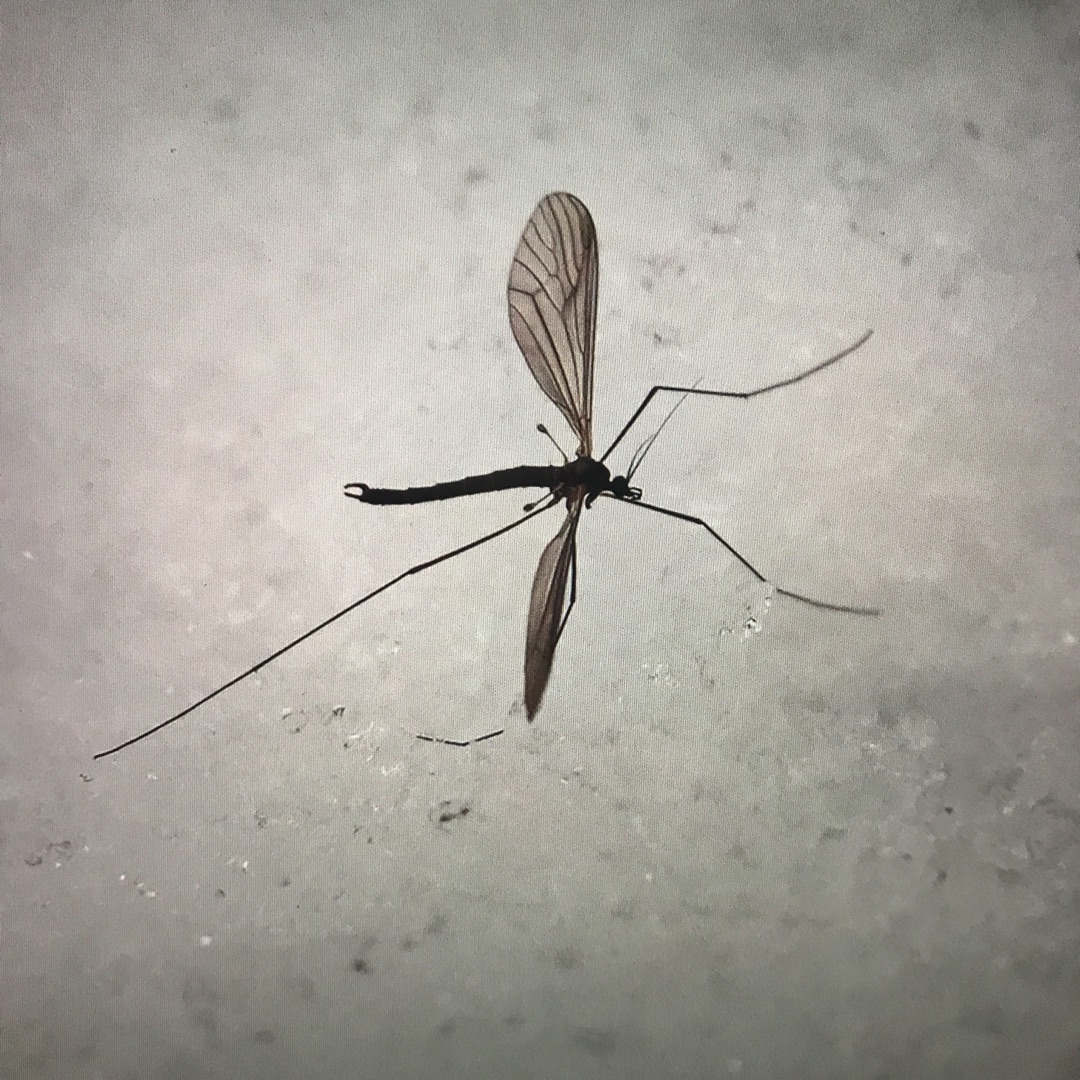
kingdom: Animalia
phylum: Arthropoda
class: Insecta
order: Diptera
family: Trichoceridae
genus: Trichocera
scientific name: Trichocera
